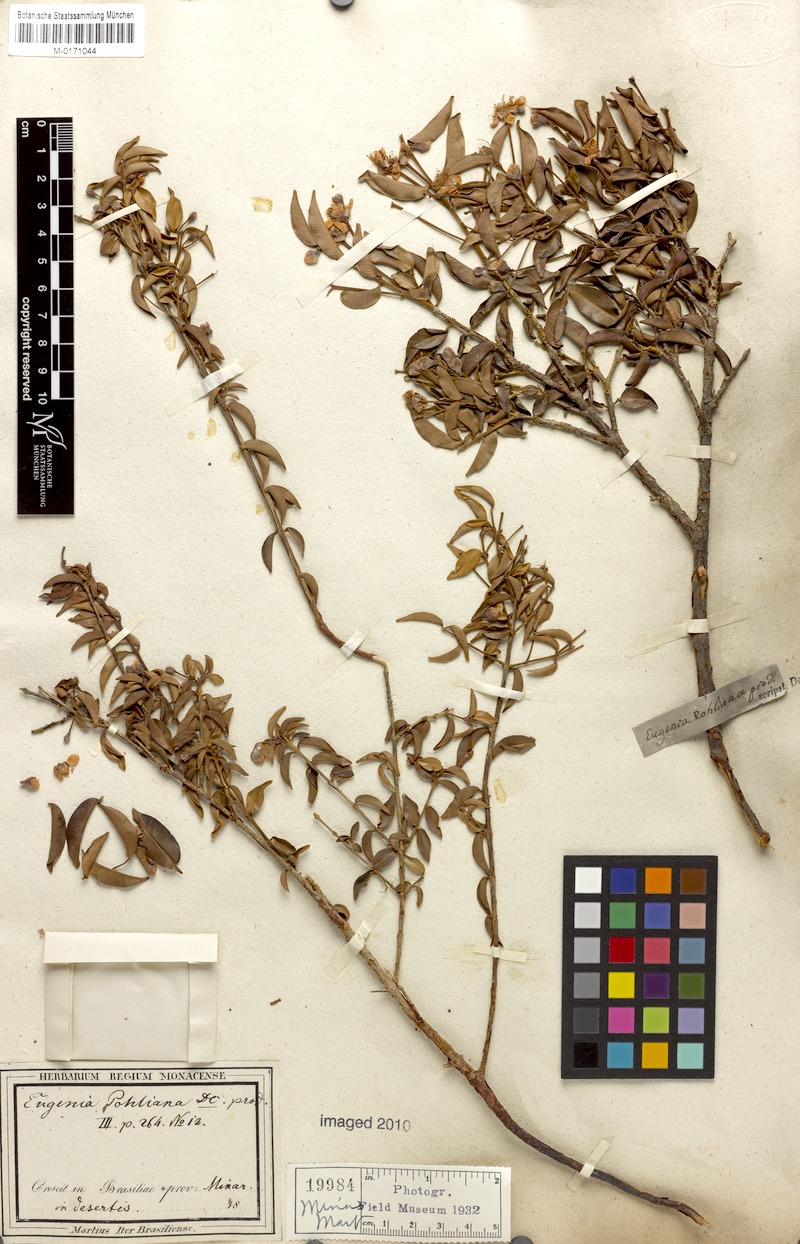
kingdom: Plantae
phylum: Tracheophyta
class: Magnoliopsida
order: Myrtales
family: Myrtaceae
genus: Eugenia
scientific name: Eugenia pohliana
